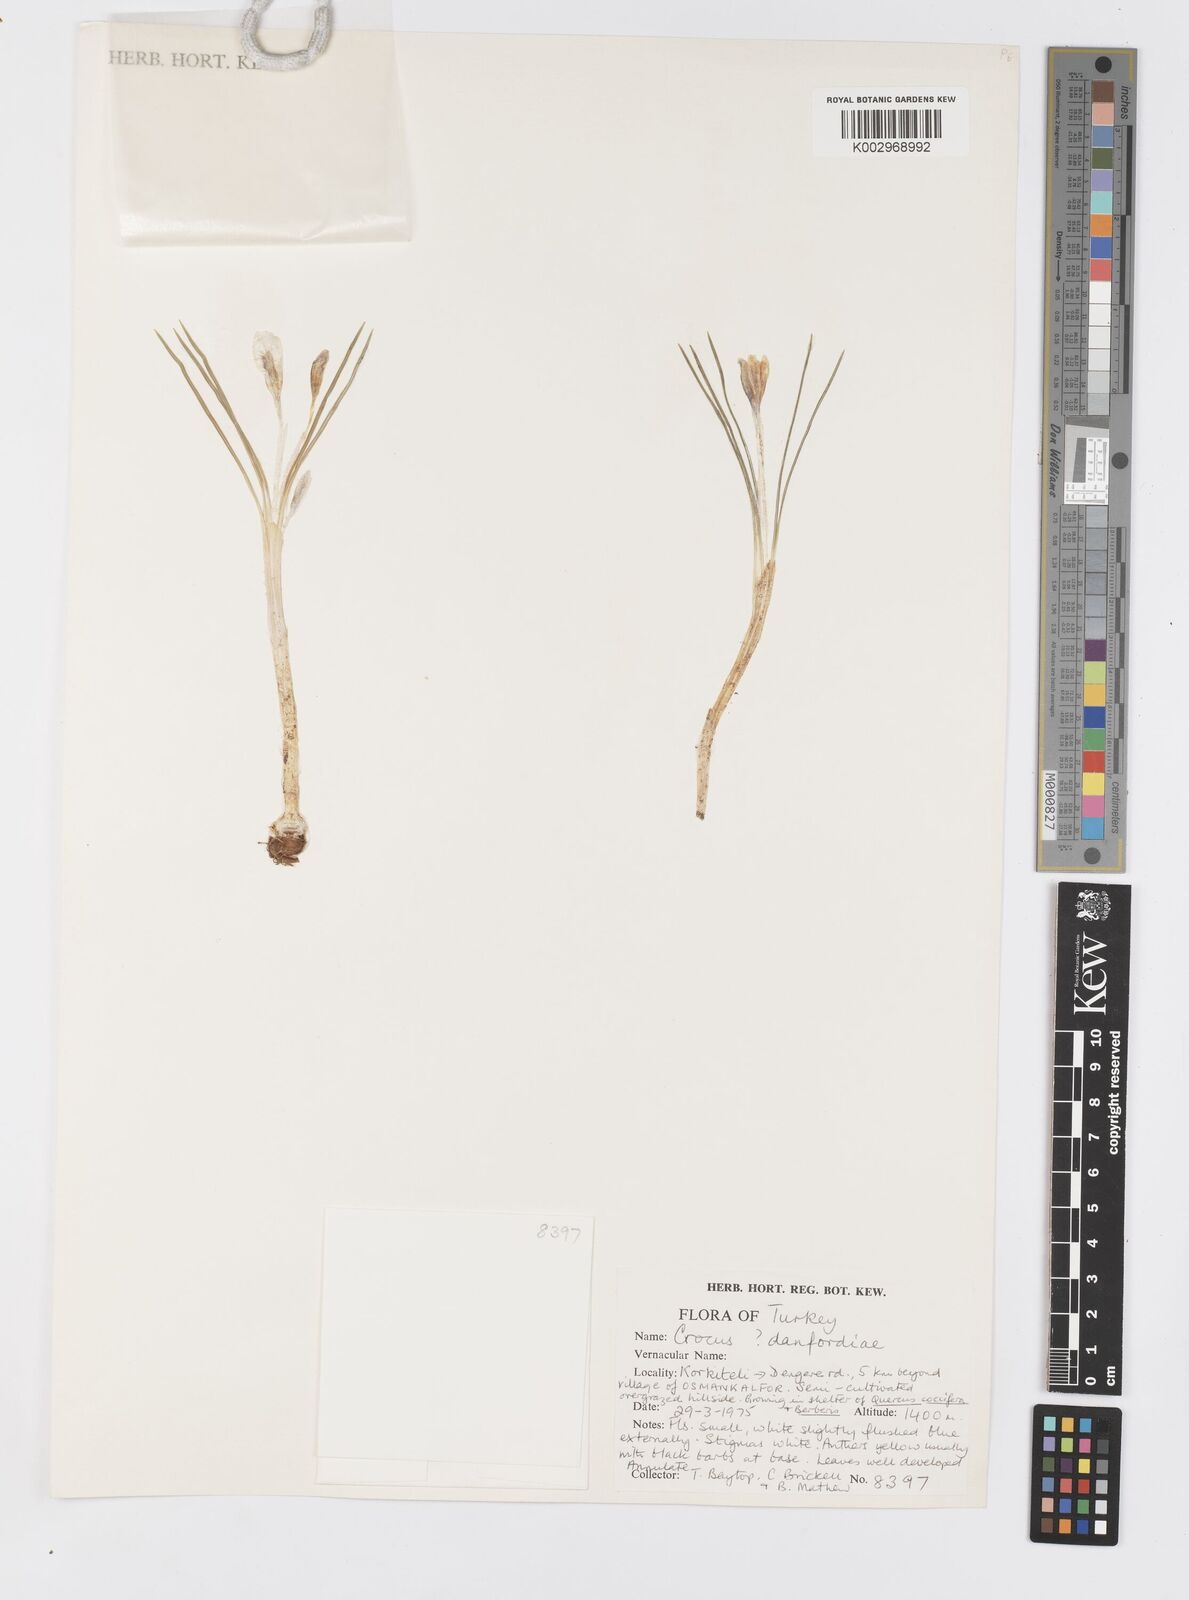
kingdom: Plantae
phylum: Tracheophyta
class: Liliopsida
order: Asparagales
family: Iridaceae
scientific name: Iridaceae
